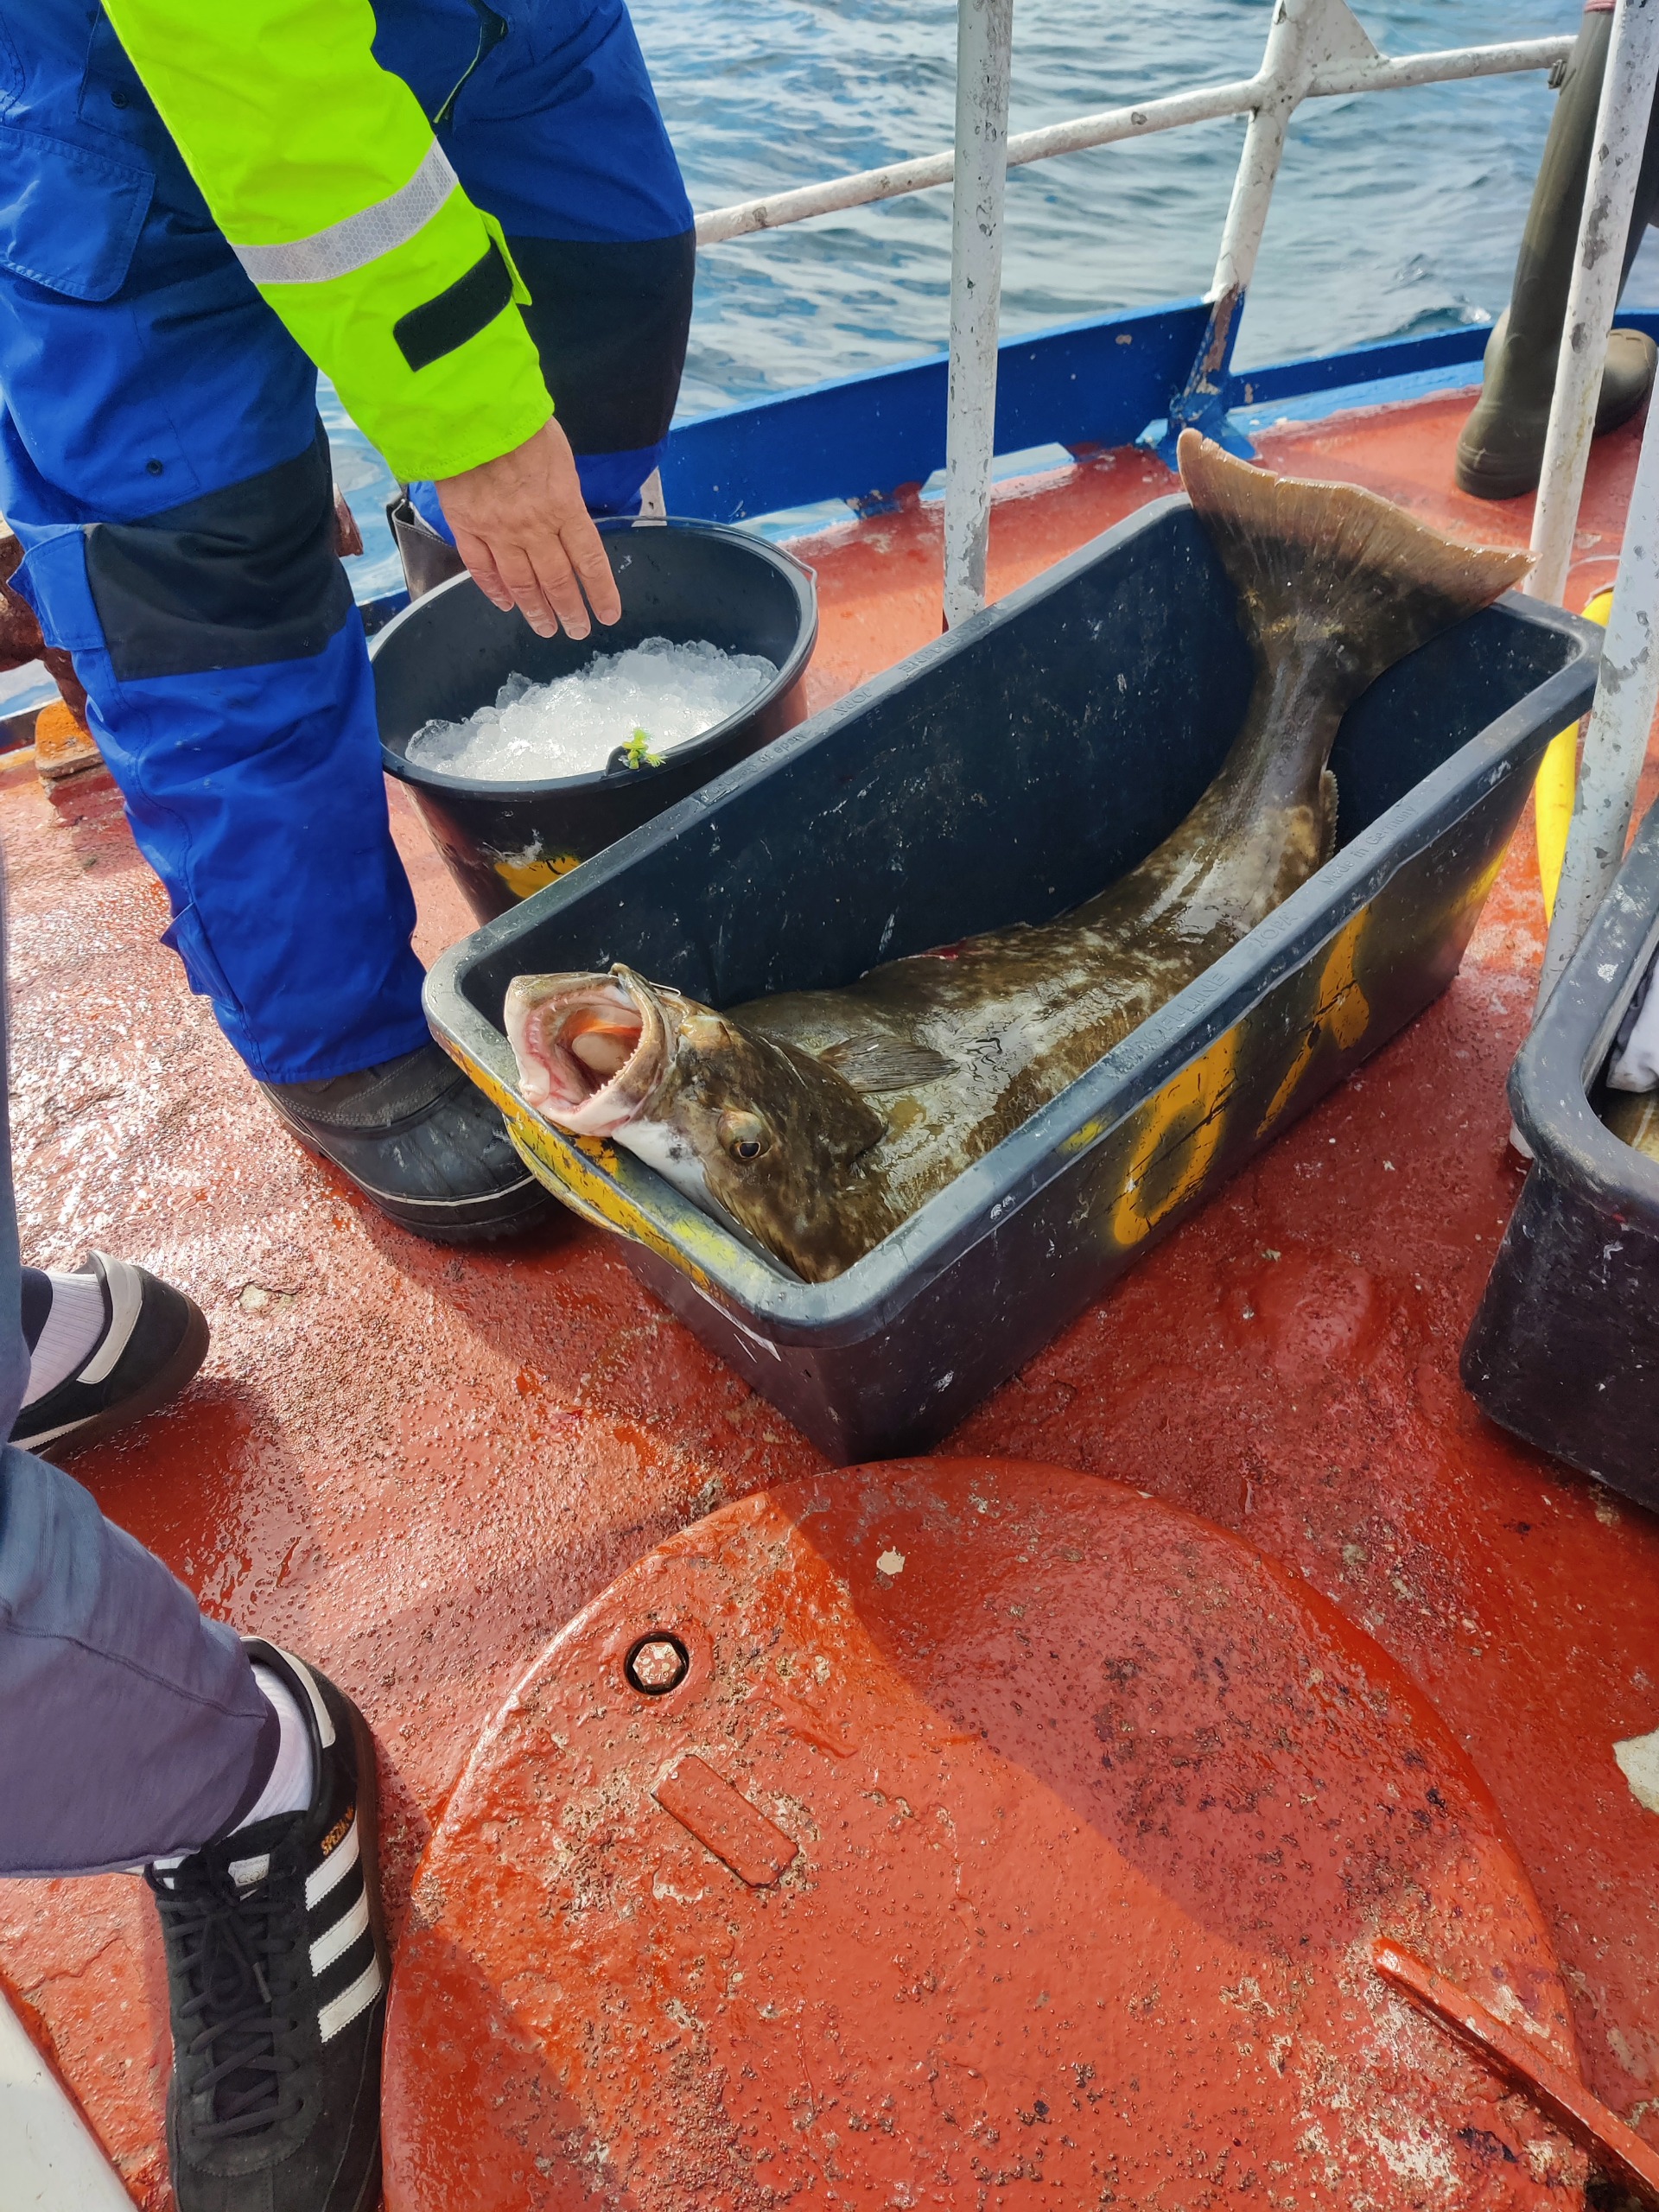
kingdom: Animalia
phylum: Chordata
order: Pleuronectiformes
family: Pleuronectidae
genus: Hippoglossus
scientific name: Hippoglossus hippoglossus
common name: Helleflynder
